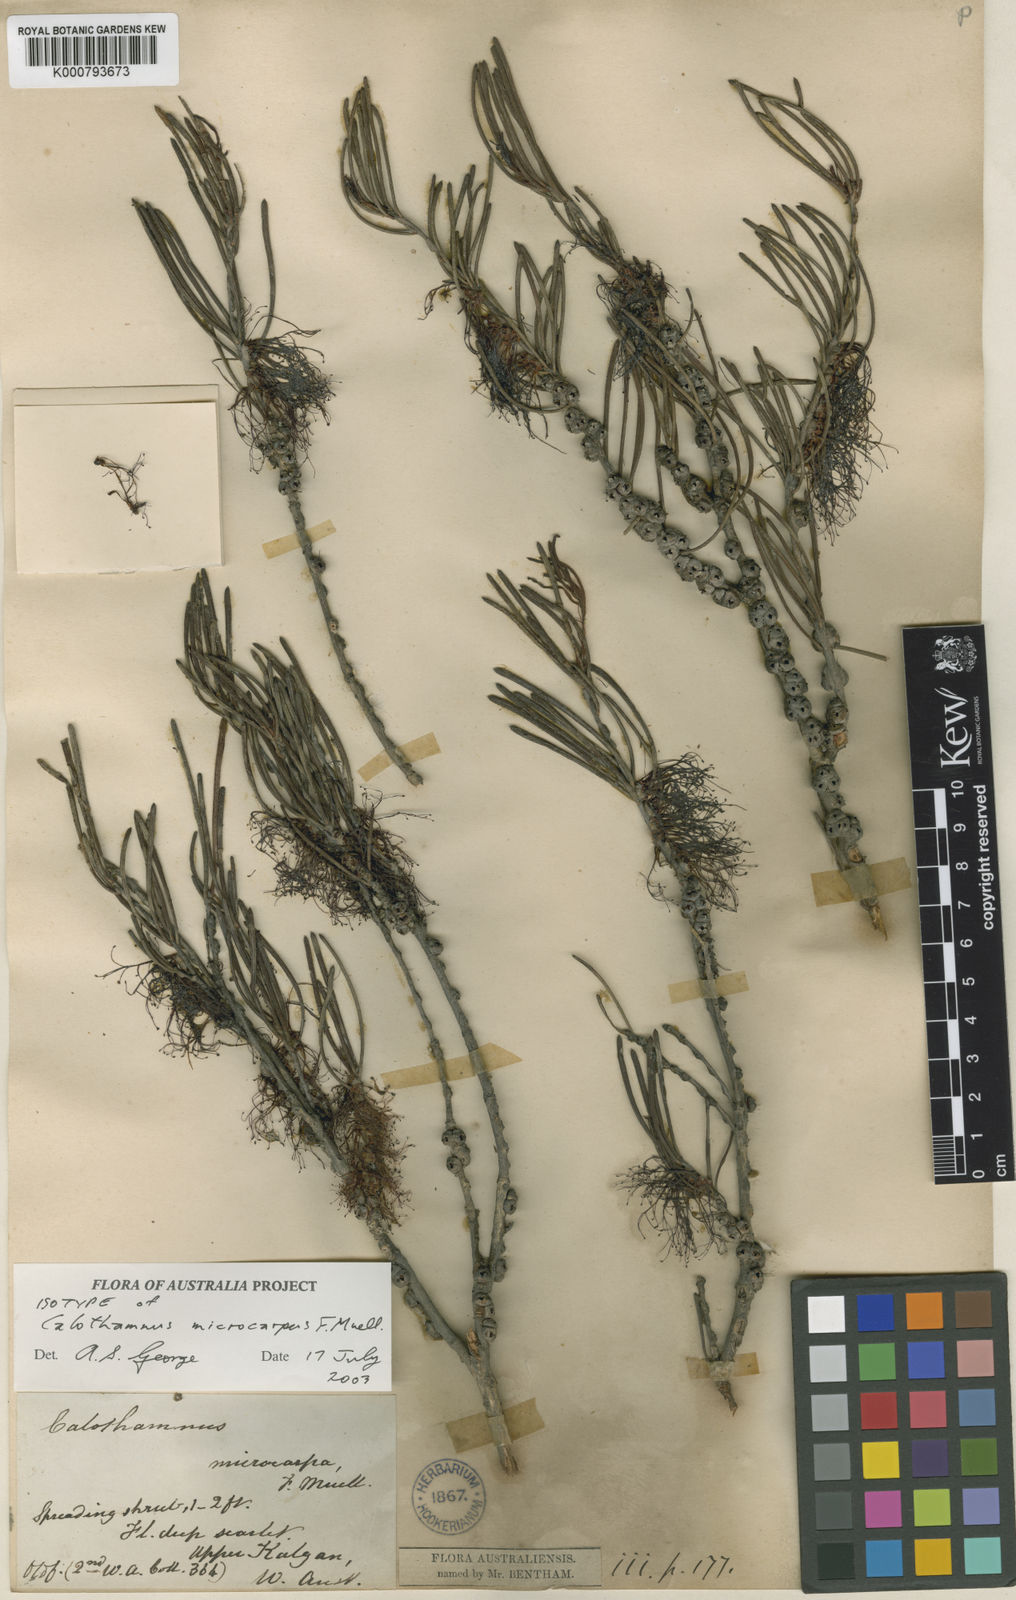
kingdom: Plantae
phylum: Tracheophyta
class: Magnoliopsida
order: Myrtales
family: Myrtaceae
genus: Melaleuca
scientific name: Melaleuca microcarpa
